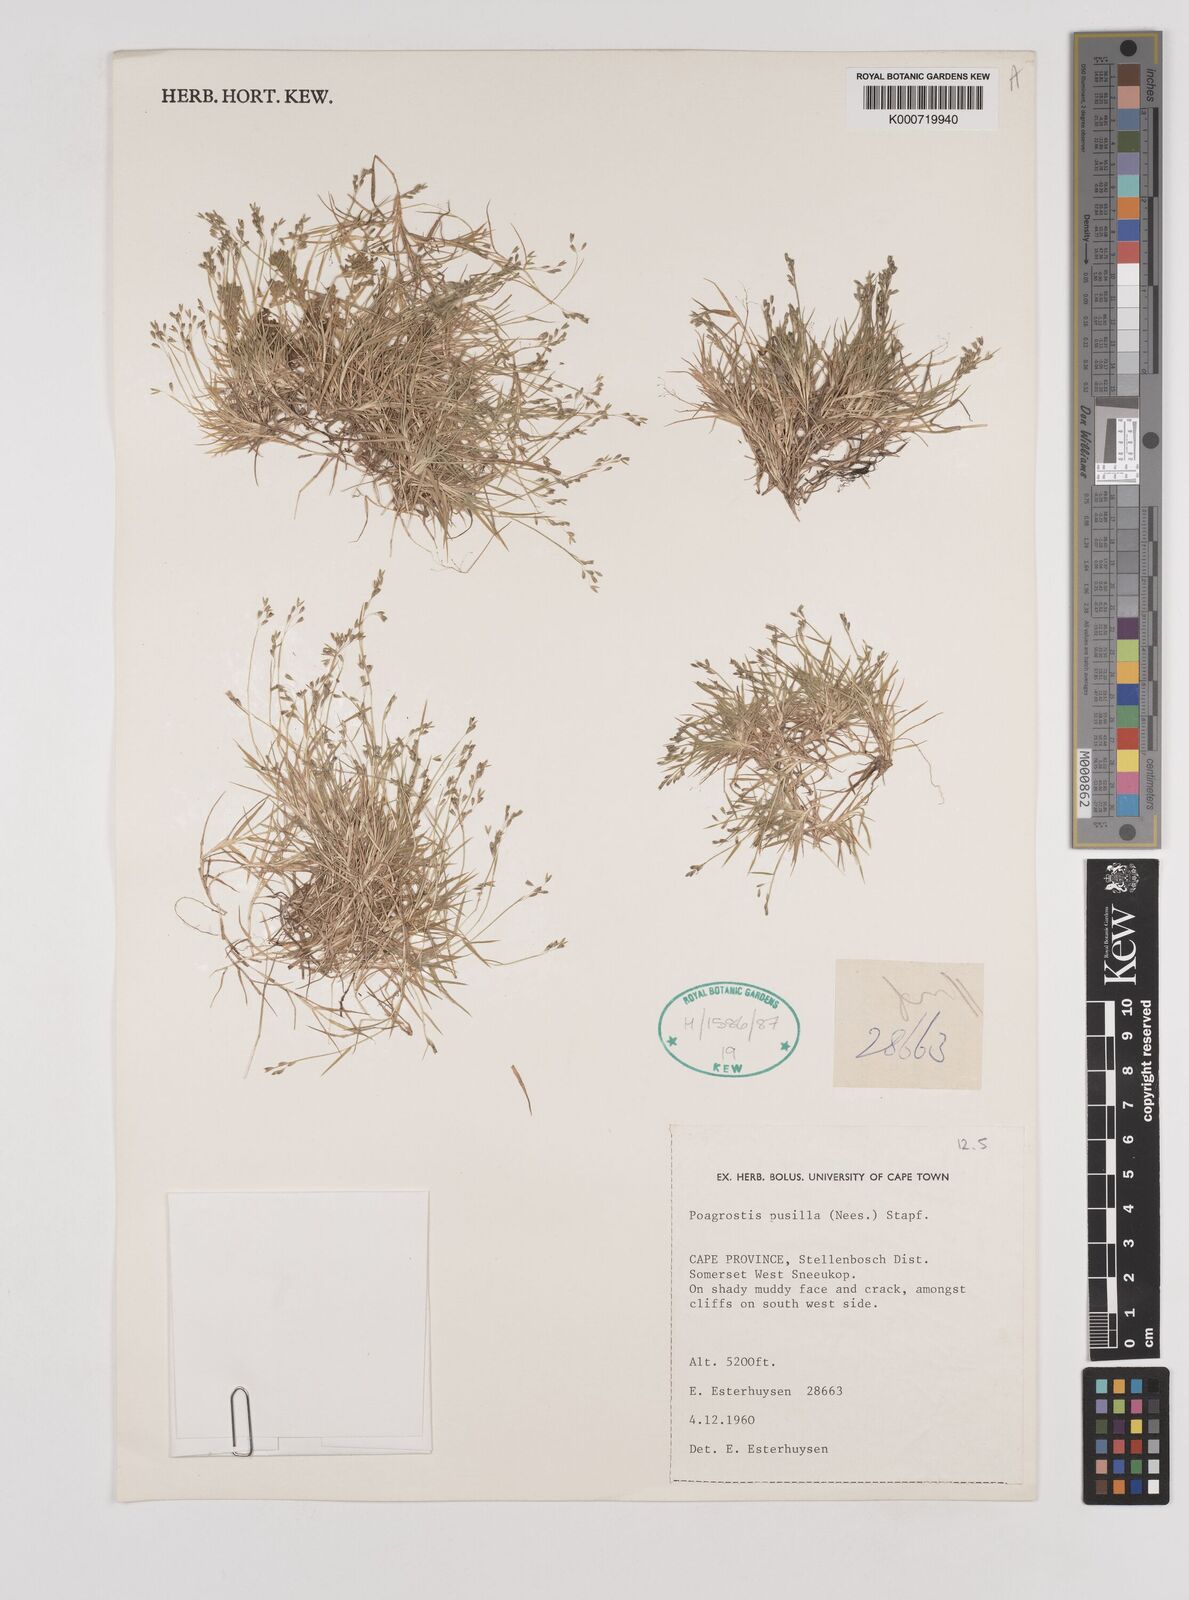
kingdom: Plantae
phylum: Tracheophyta
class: Liliopsida
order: Poales
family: Poaceae
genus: Pentameris
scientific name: Pentameris pusilla
